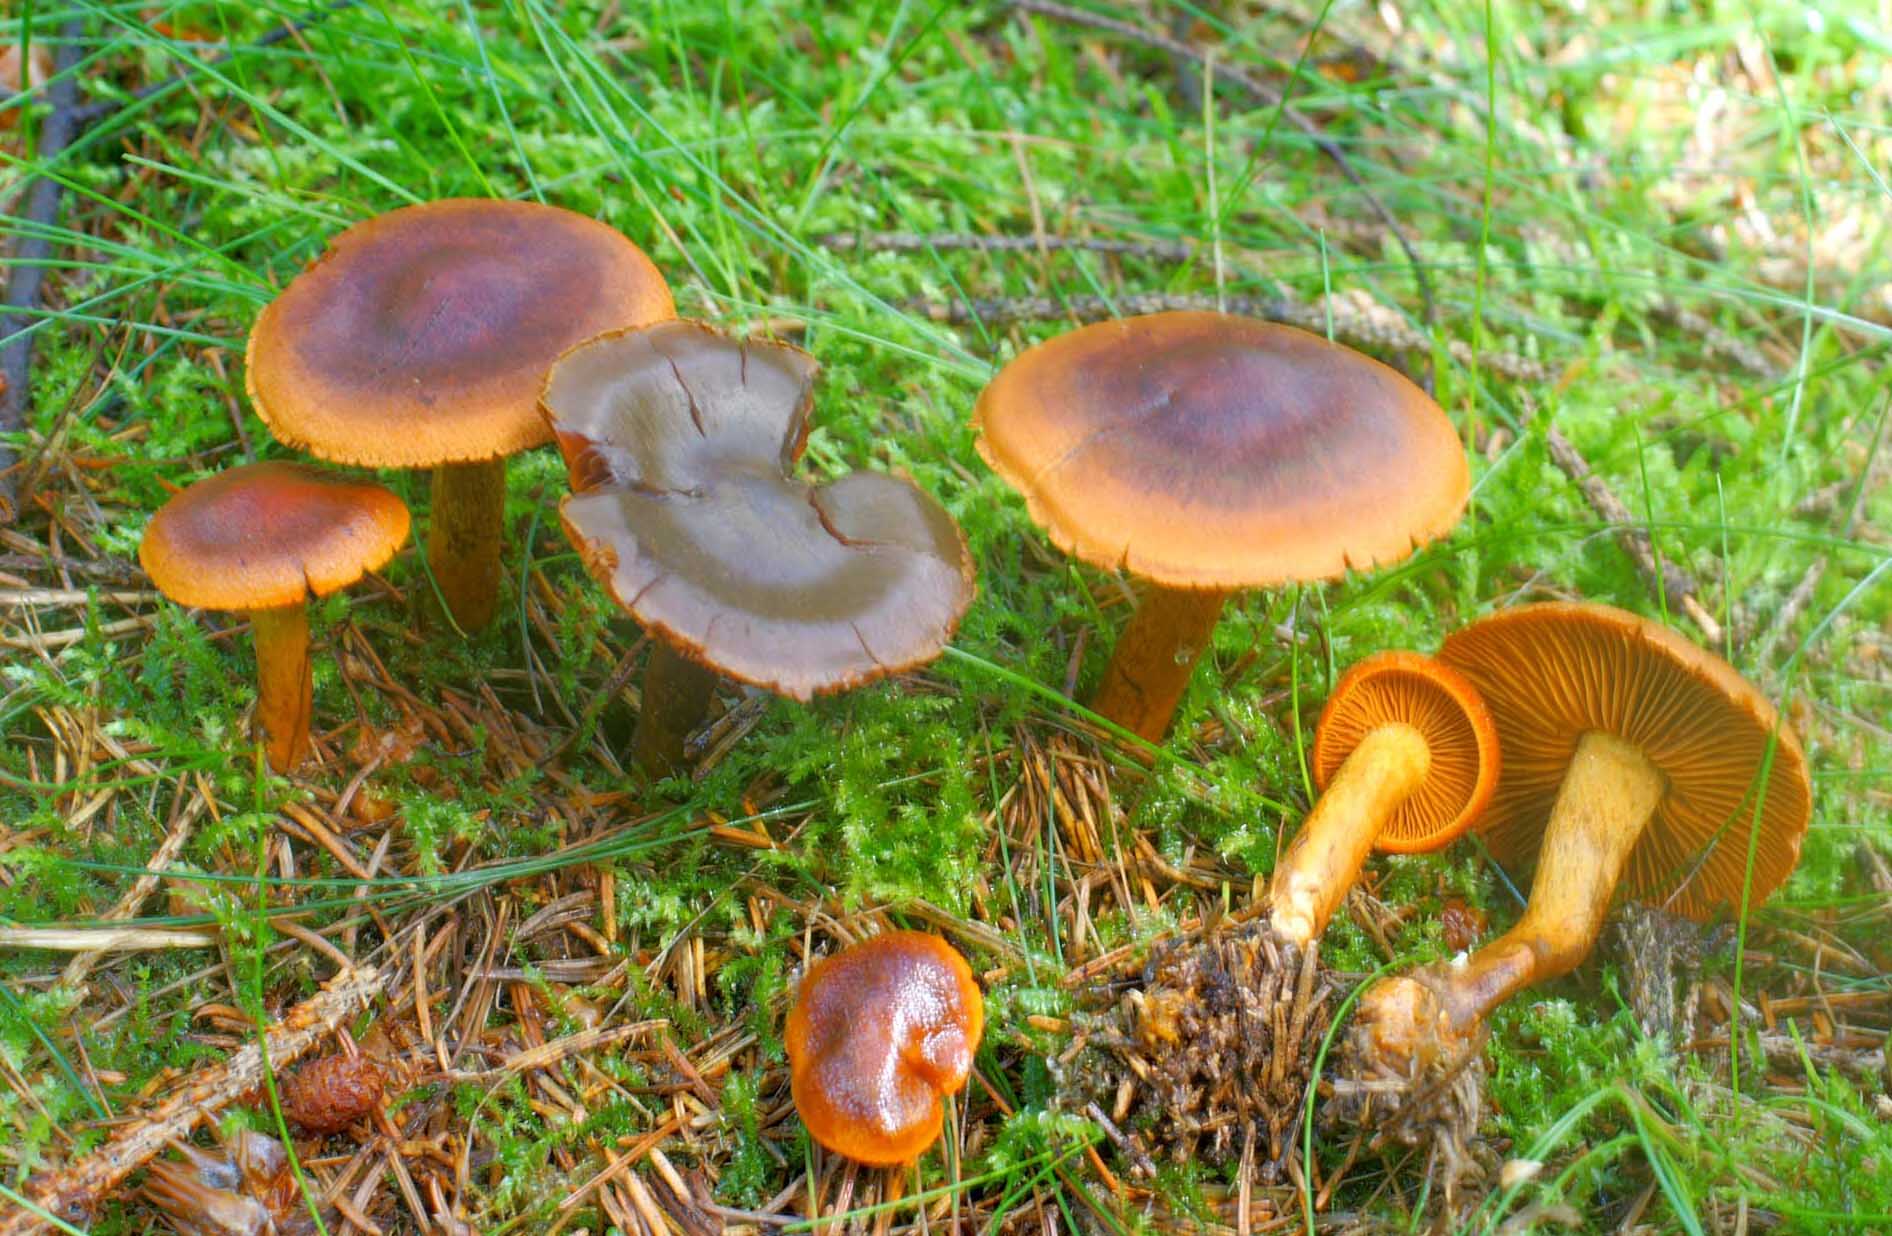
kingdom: Fungi
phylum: Basidiomycota
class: Agaricomycetes
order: Agaricales
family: Cortinariaceae
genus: Cortinarius
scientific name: Cortinarius malicorius
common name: grønkødet slørhat
